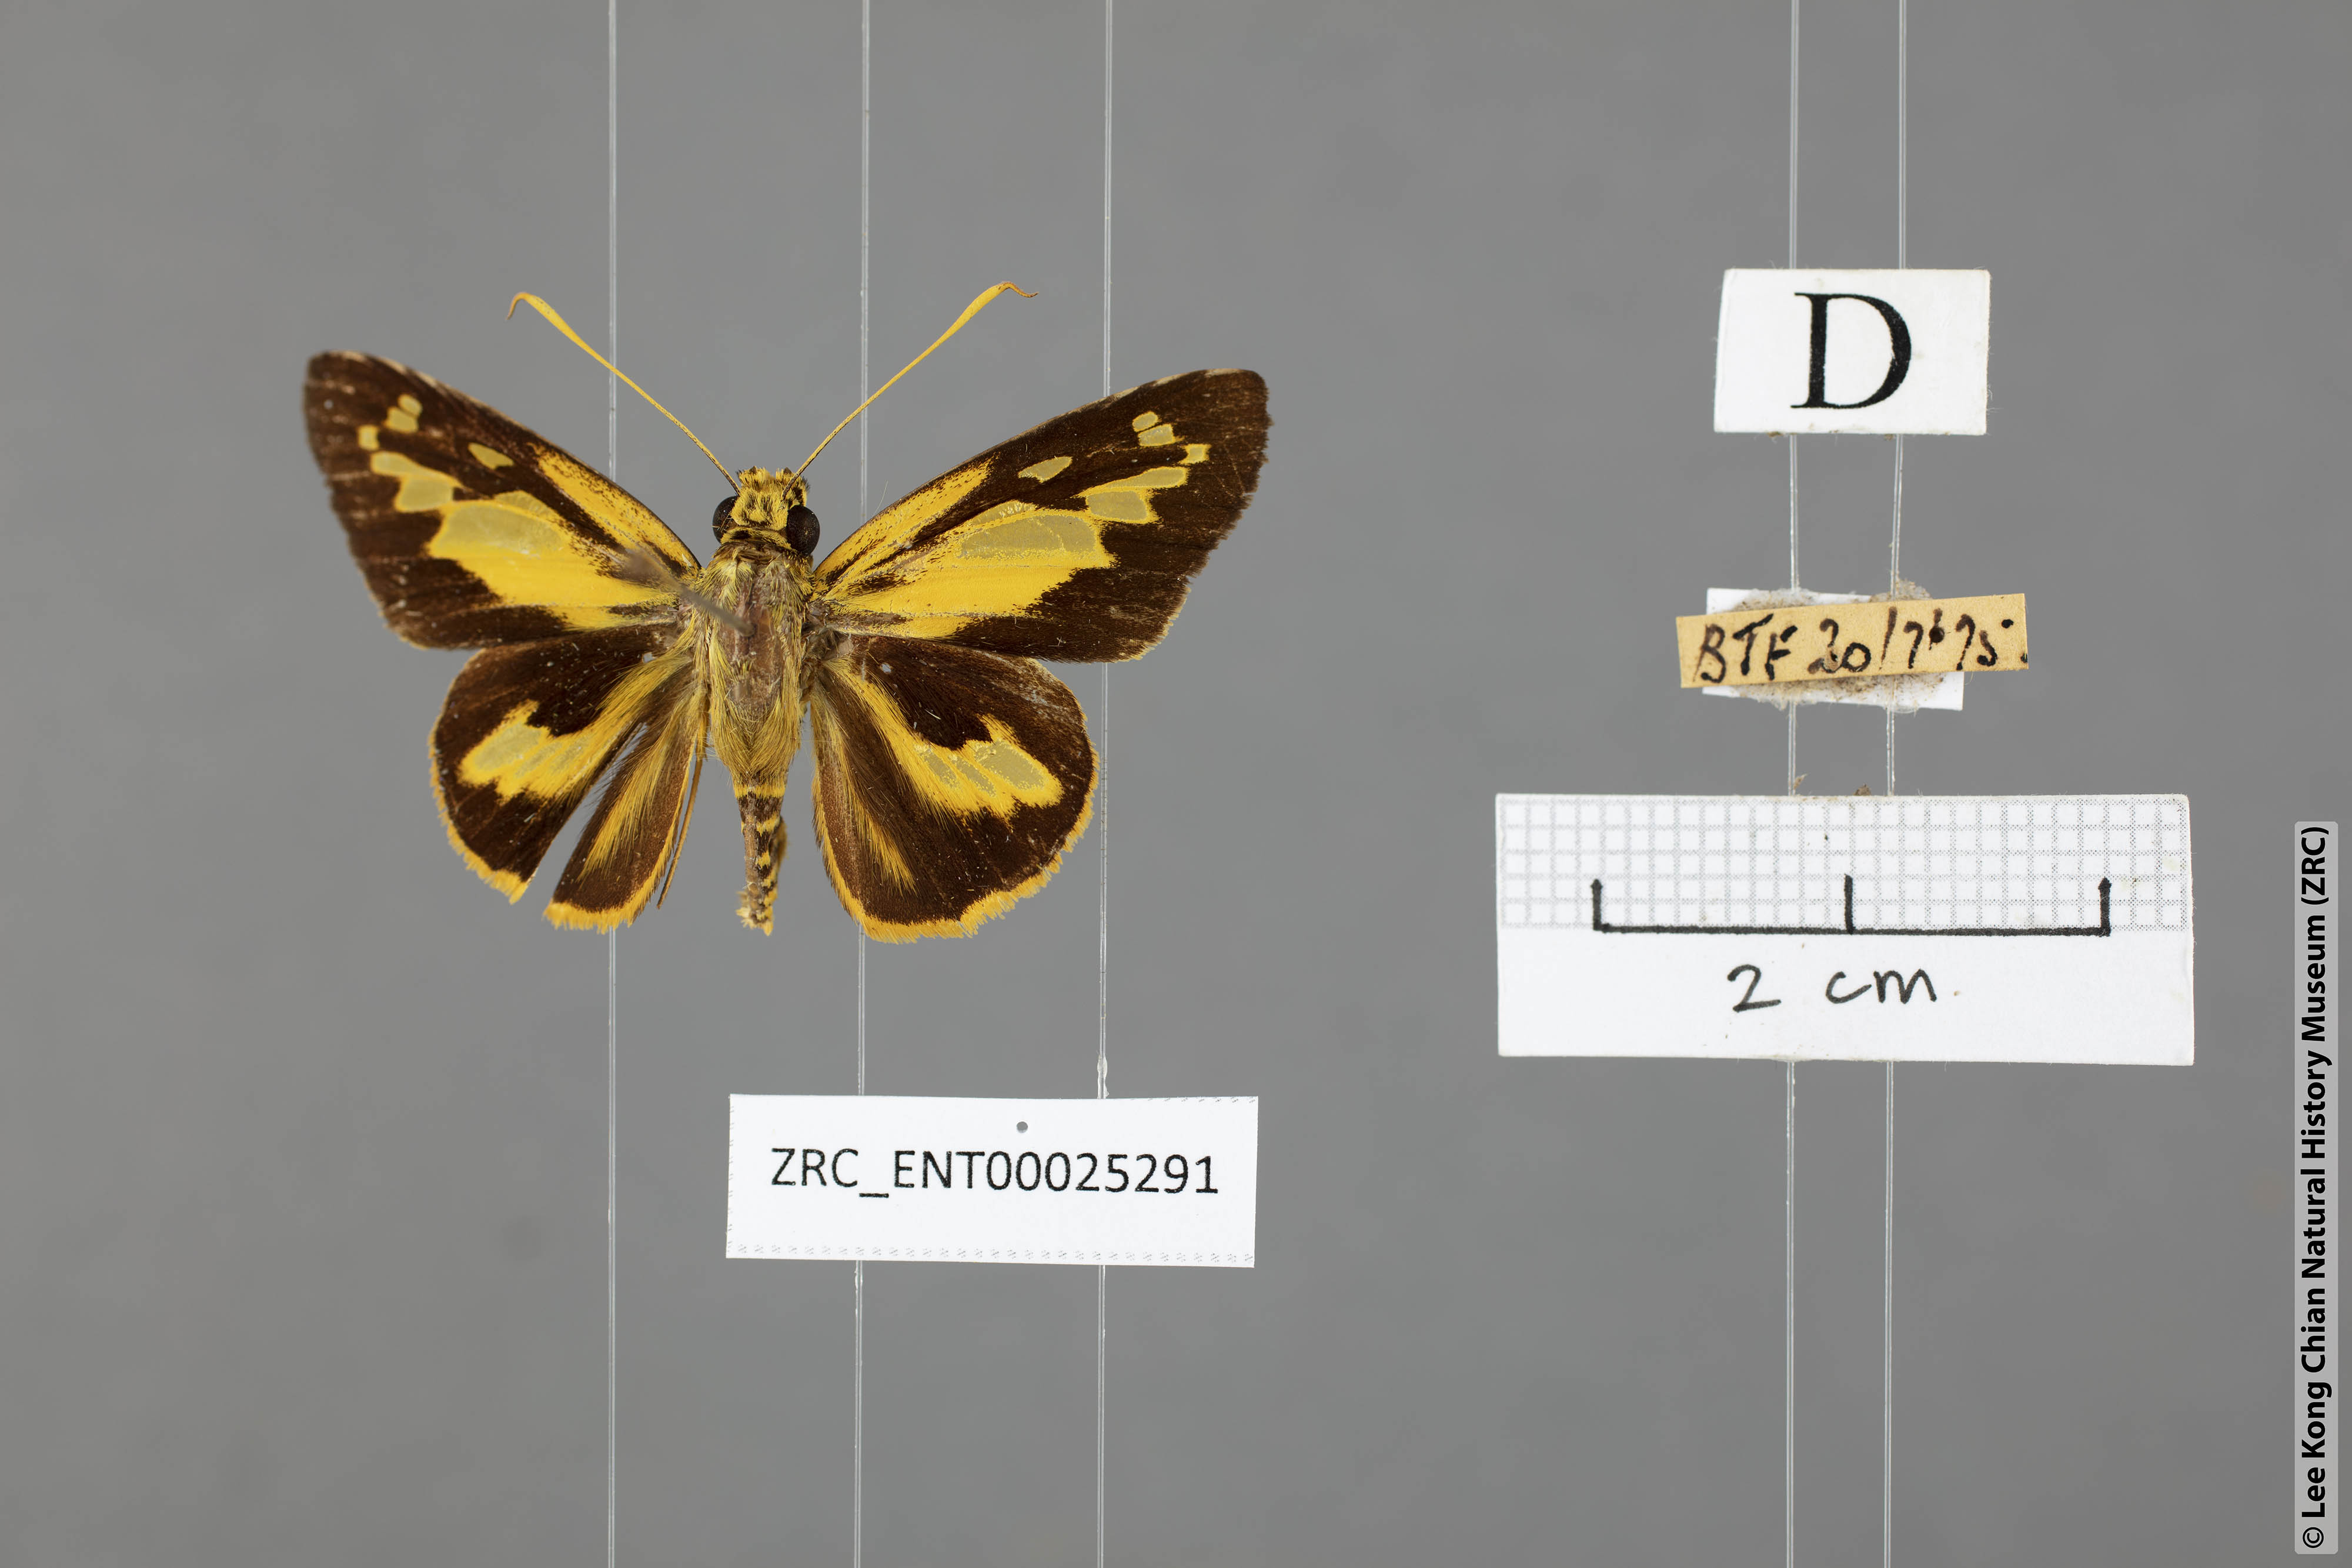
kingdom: Animalia
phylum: Arthropoda
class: Insecta
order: Lepidoptera
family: Hesperiidae
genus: Pyroneura
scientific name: Pyroneura
